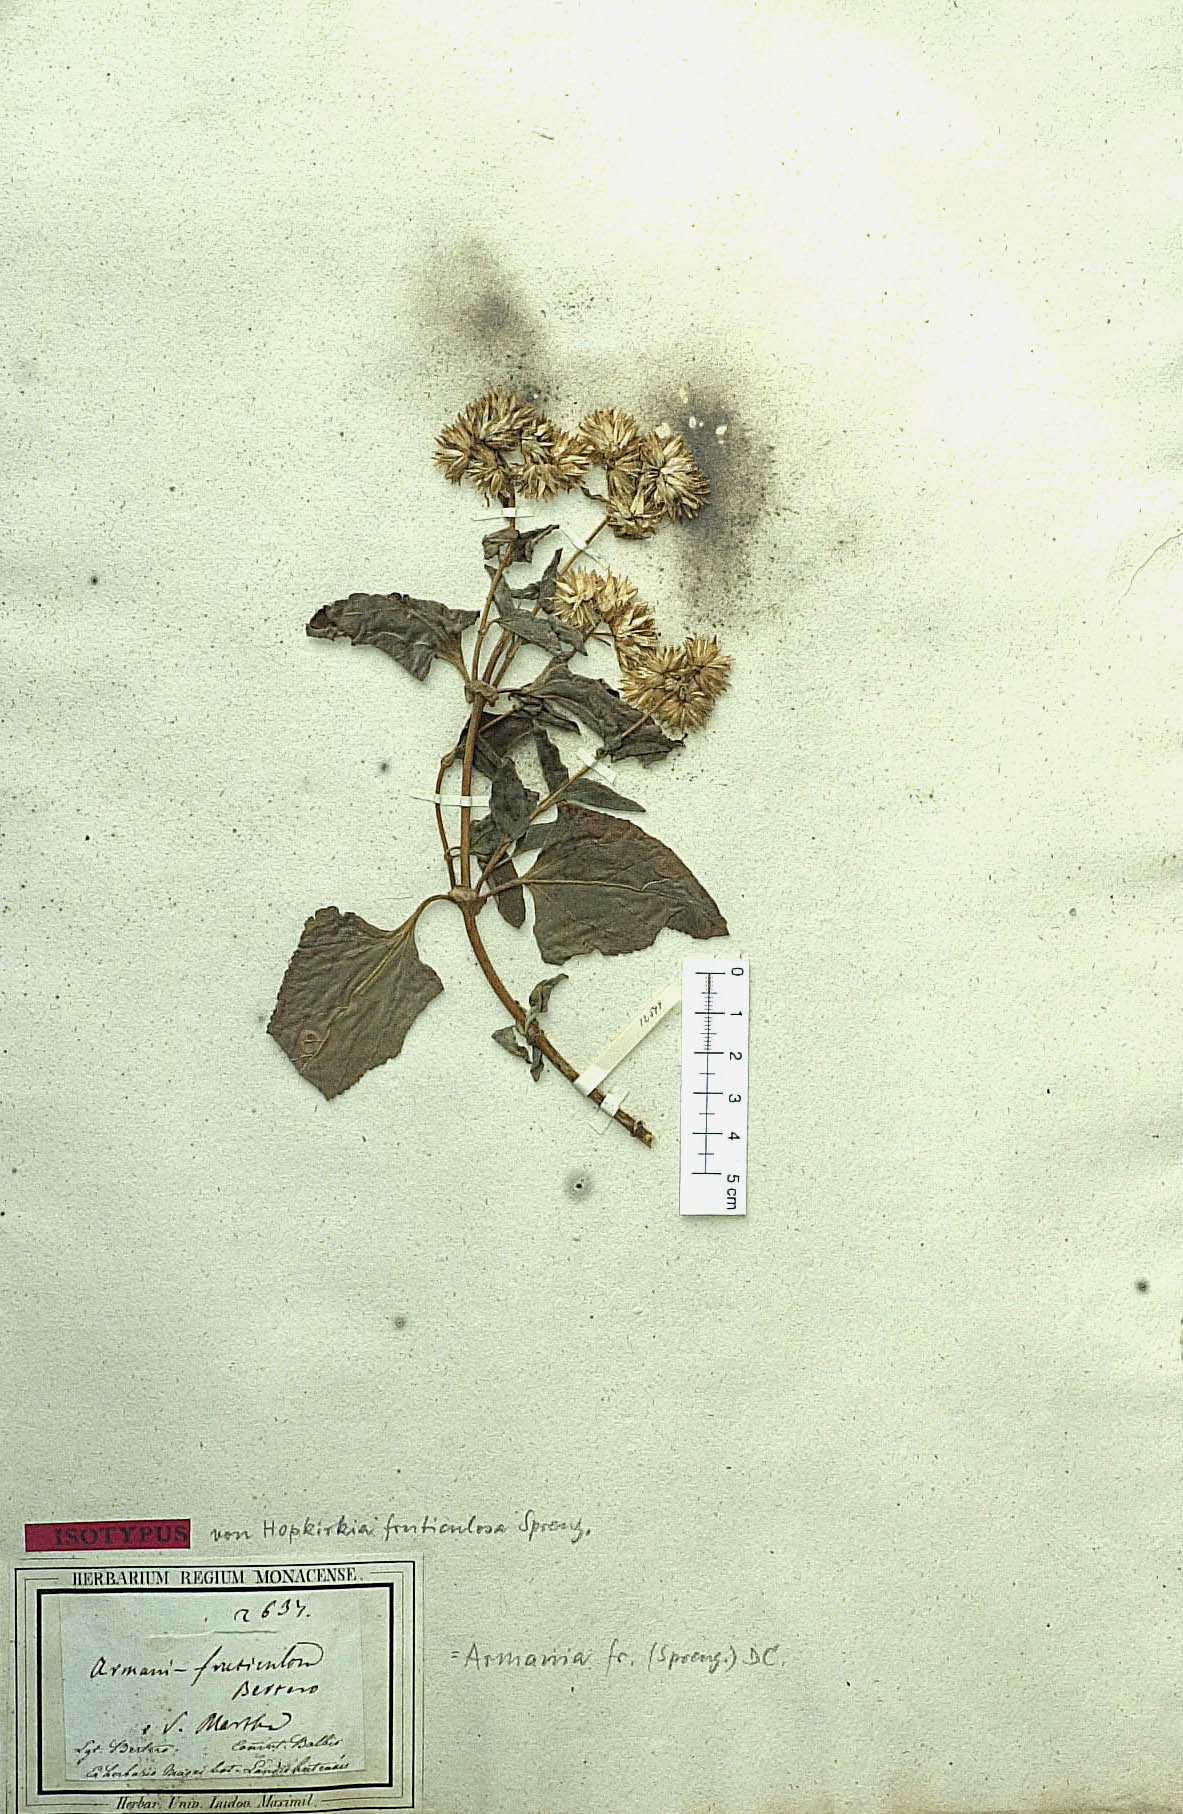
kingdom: Plantae
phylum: Tracheophyta
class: Magnoliopsida
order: Asterales
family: Asteraceae
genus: Simsia
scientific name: Simsia fruticulosa
